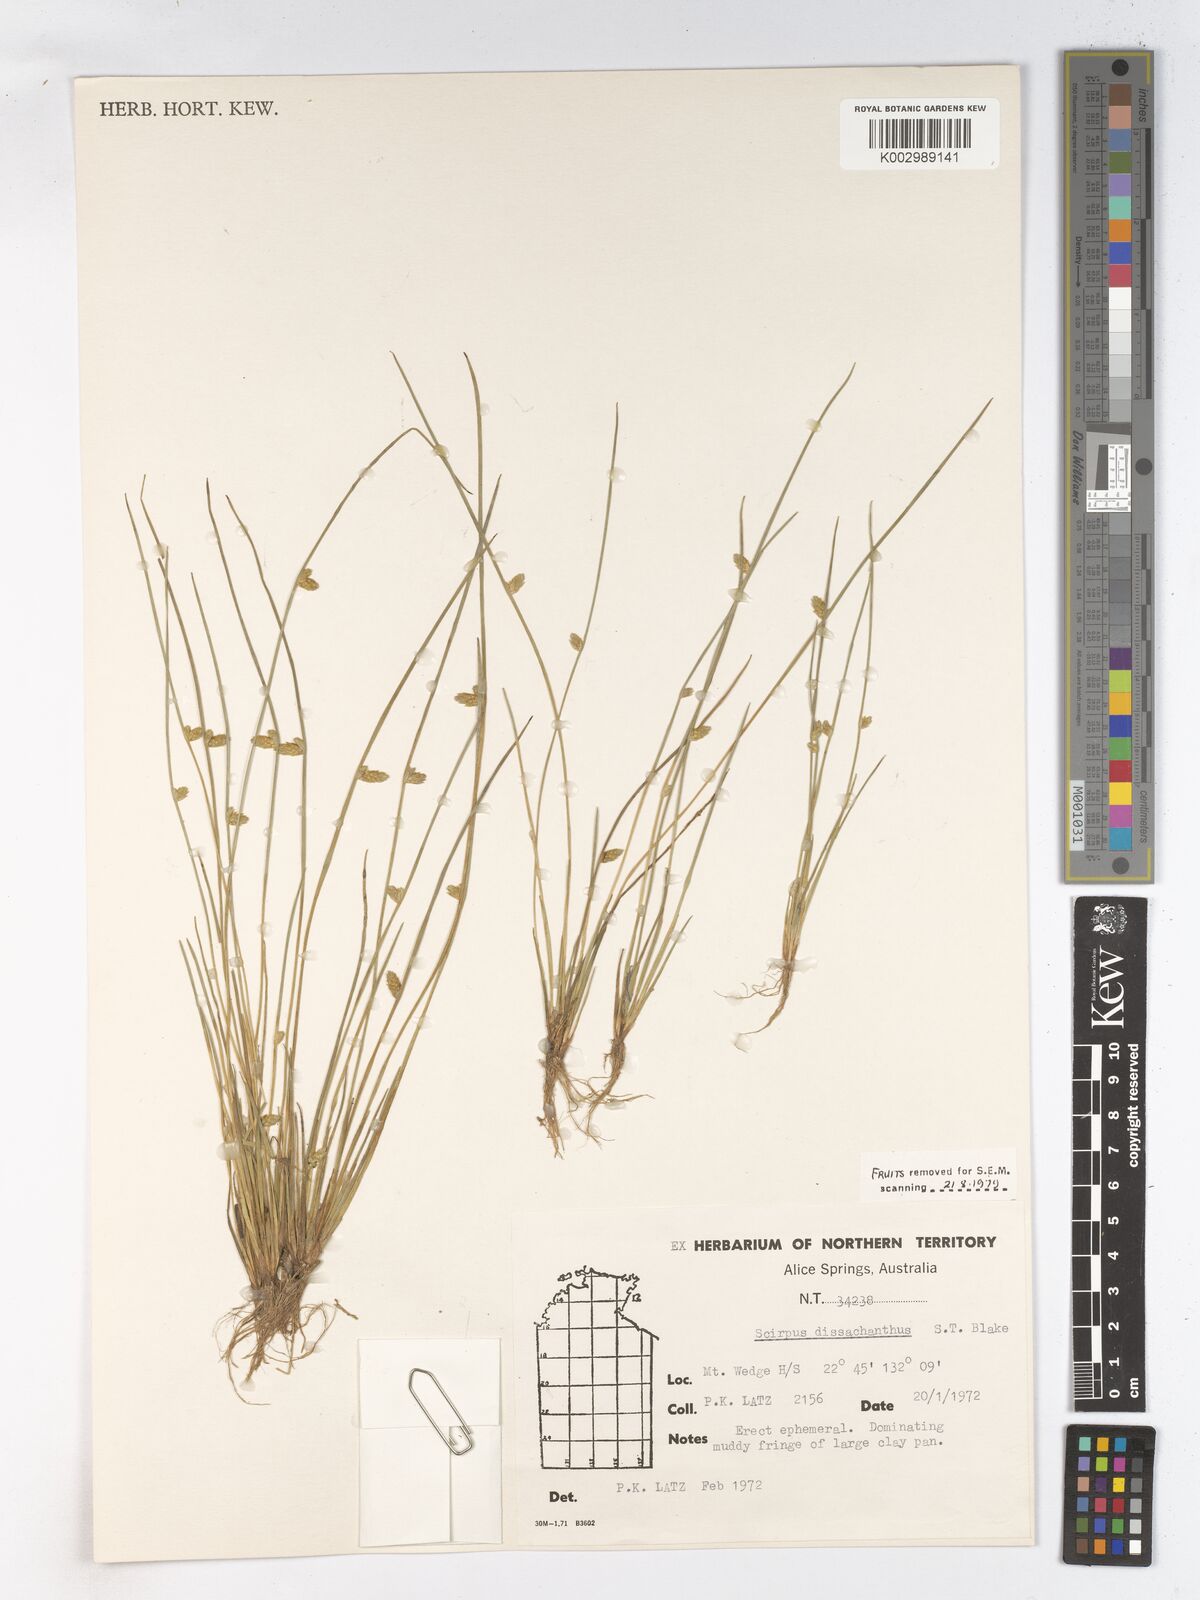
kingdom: Plantae
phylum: Tracheophyta
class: Liliopsida
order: Poales
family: Cyperaceae
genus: Schoenoplectiella
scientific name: Schoenoplectiella dissachantha
